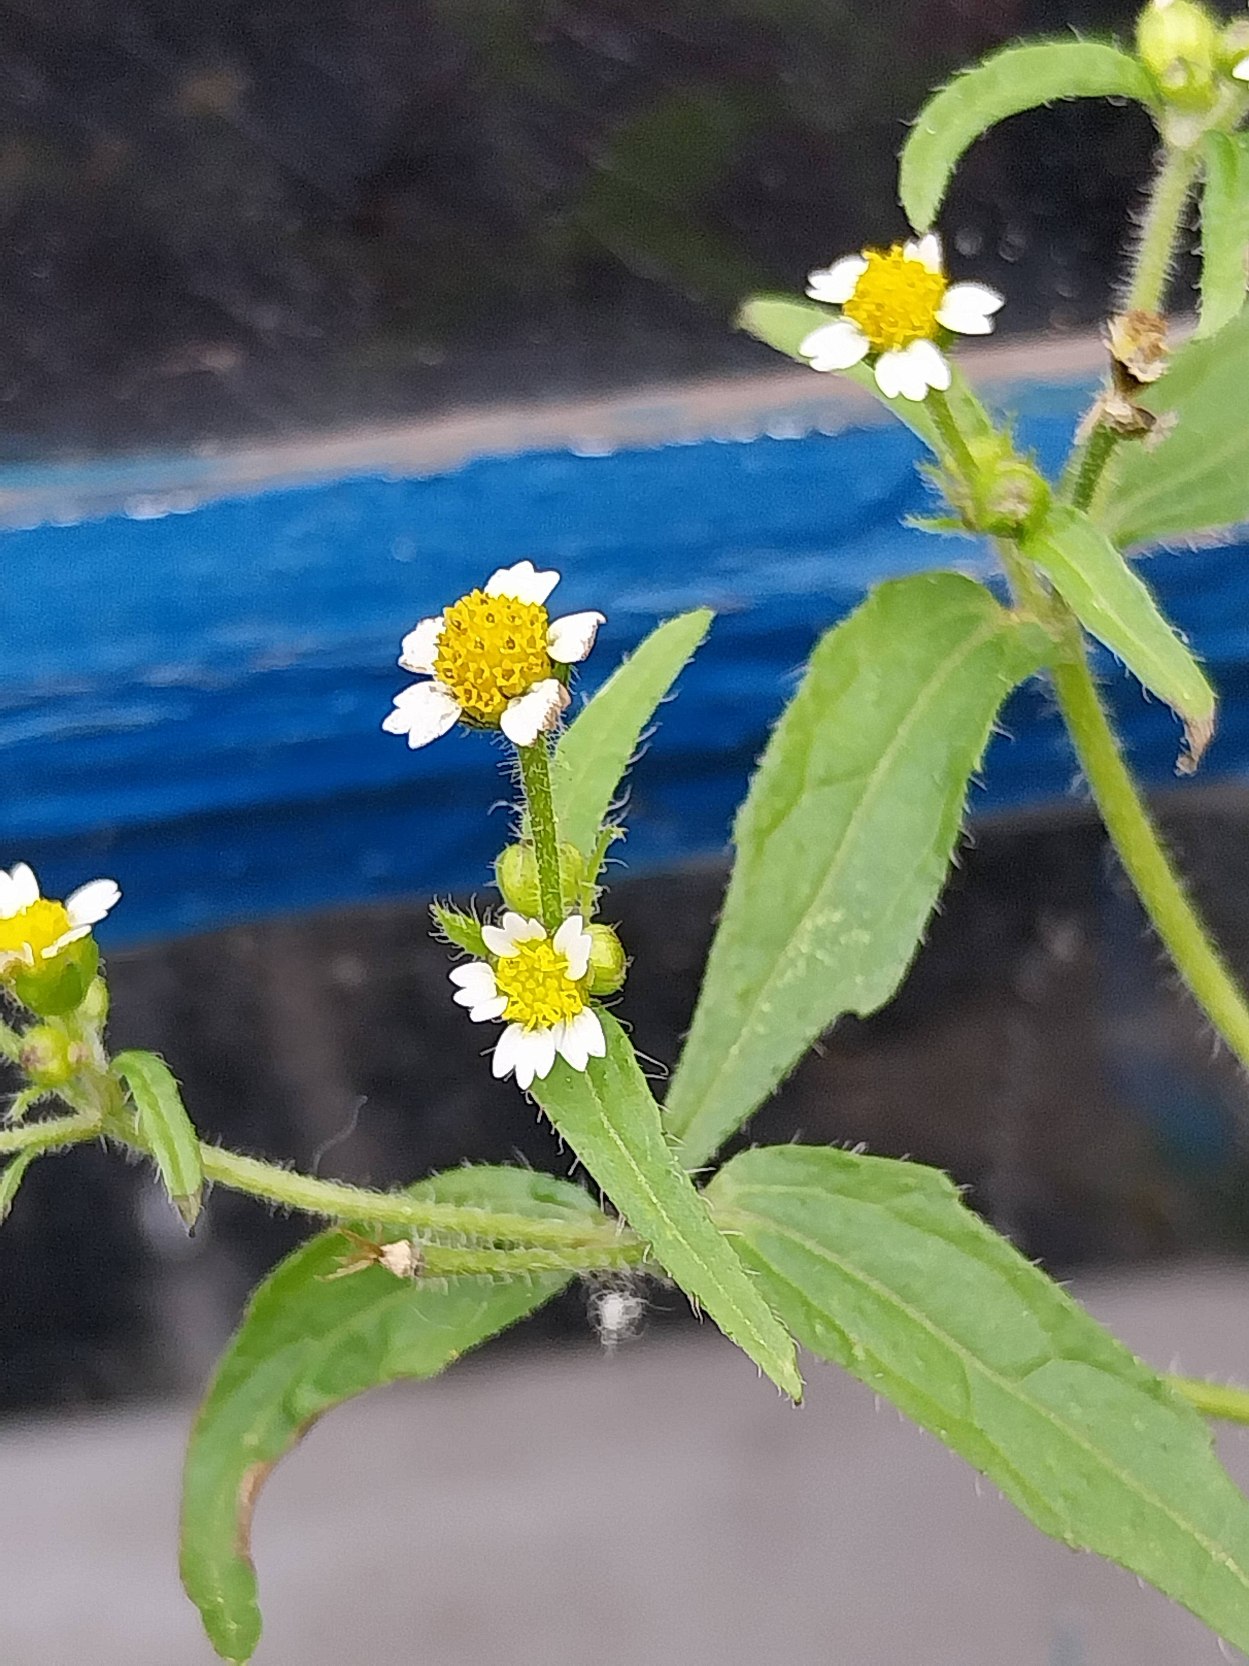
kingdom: Plantae
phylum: Tracheophyta
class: Magnoliopsida
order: Asterales
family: Asteraceae
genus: Galinsoga
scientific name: Galinsoga quadriradiata
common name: Kirtel-kortstråle
